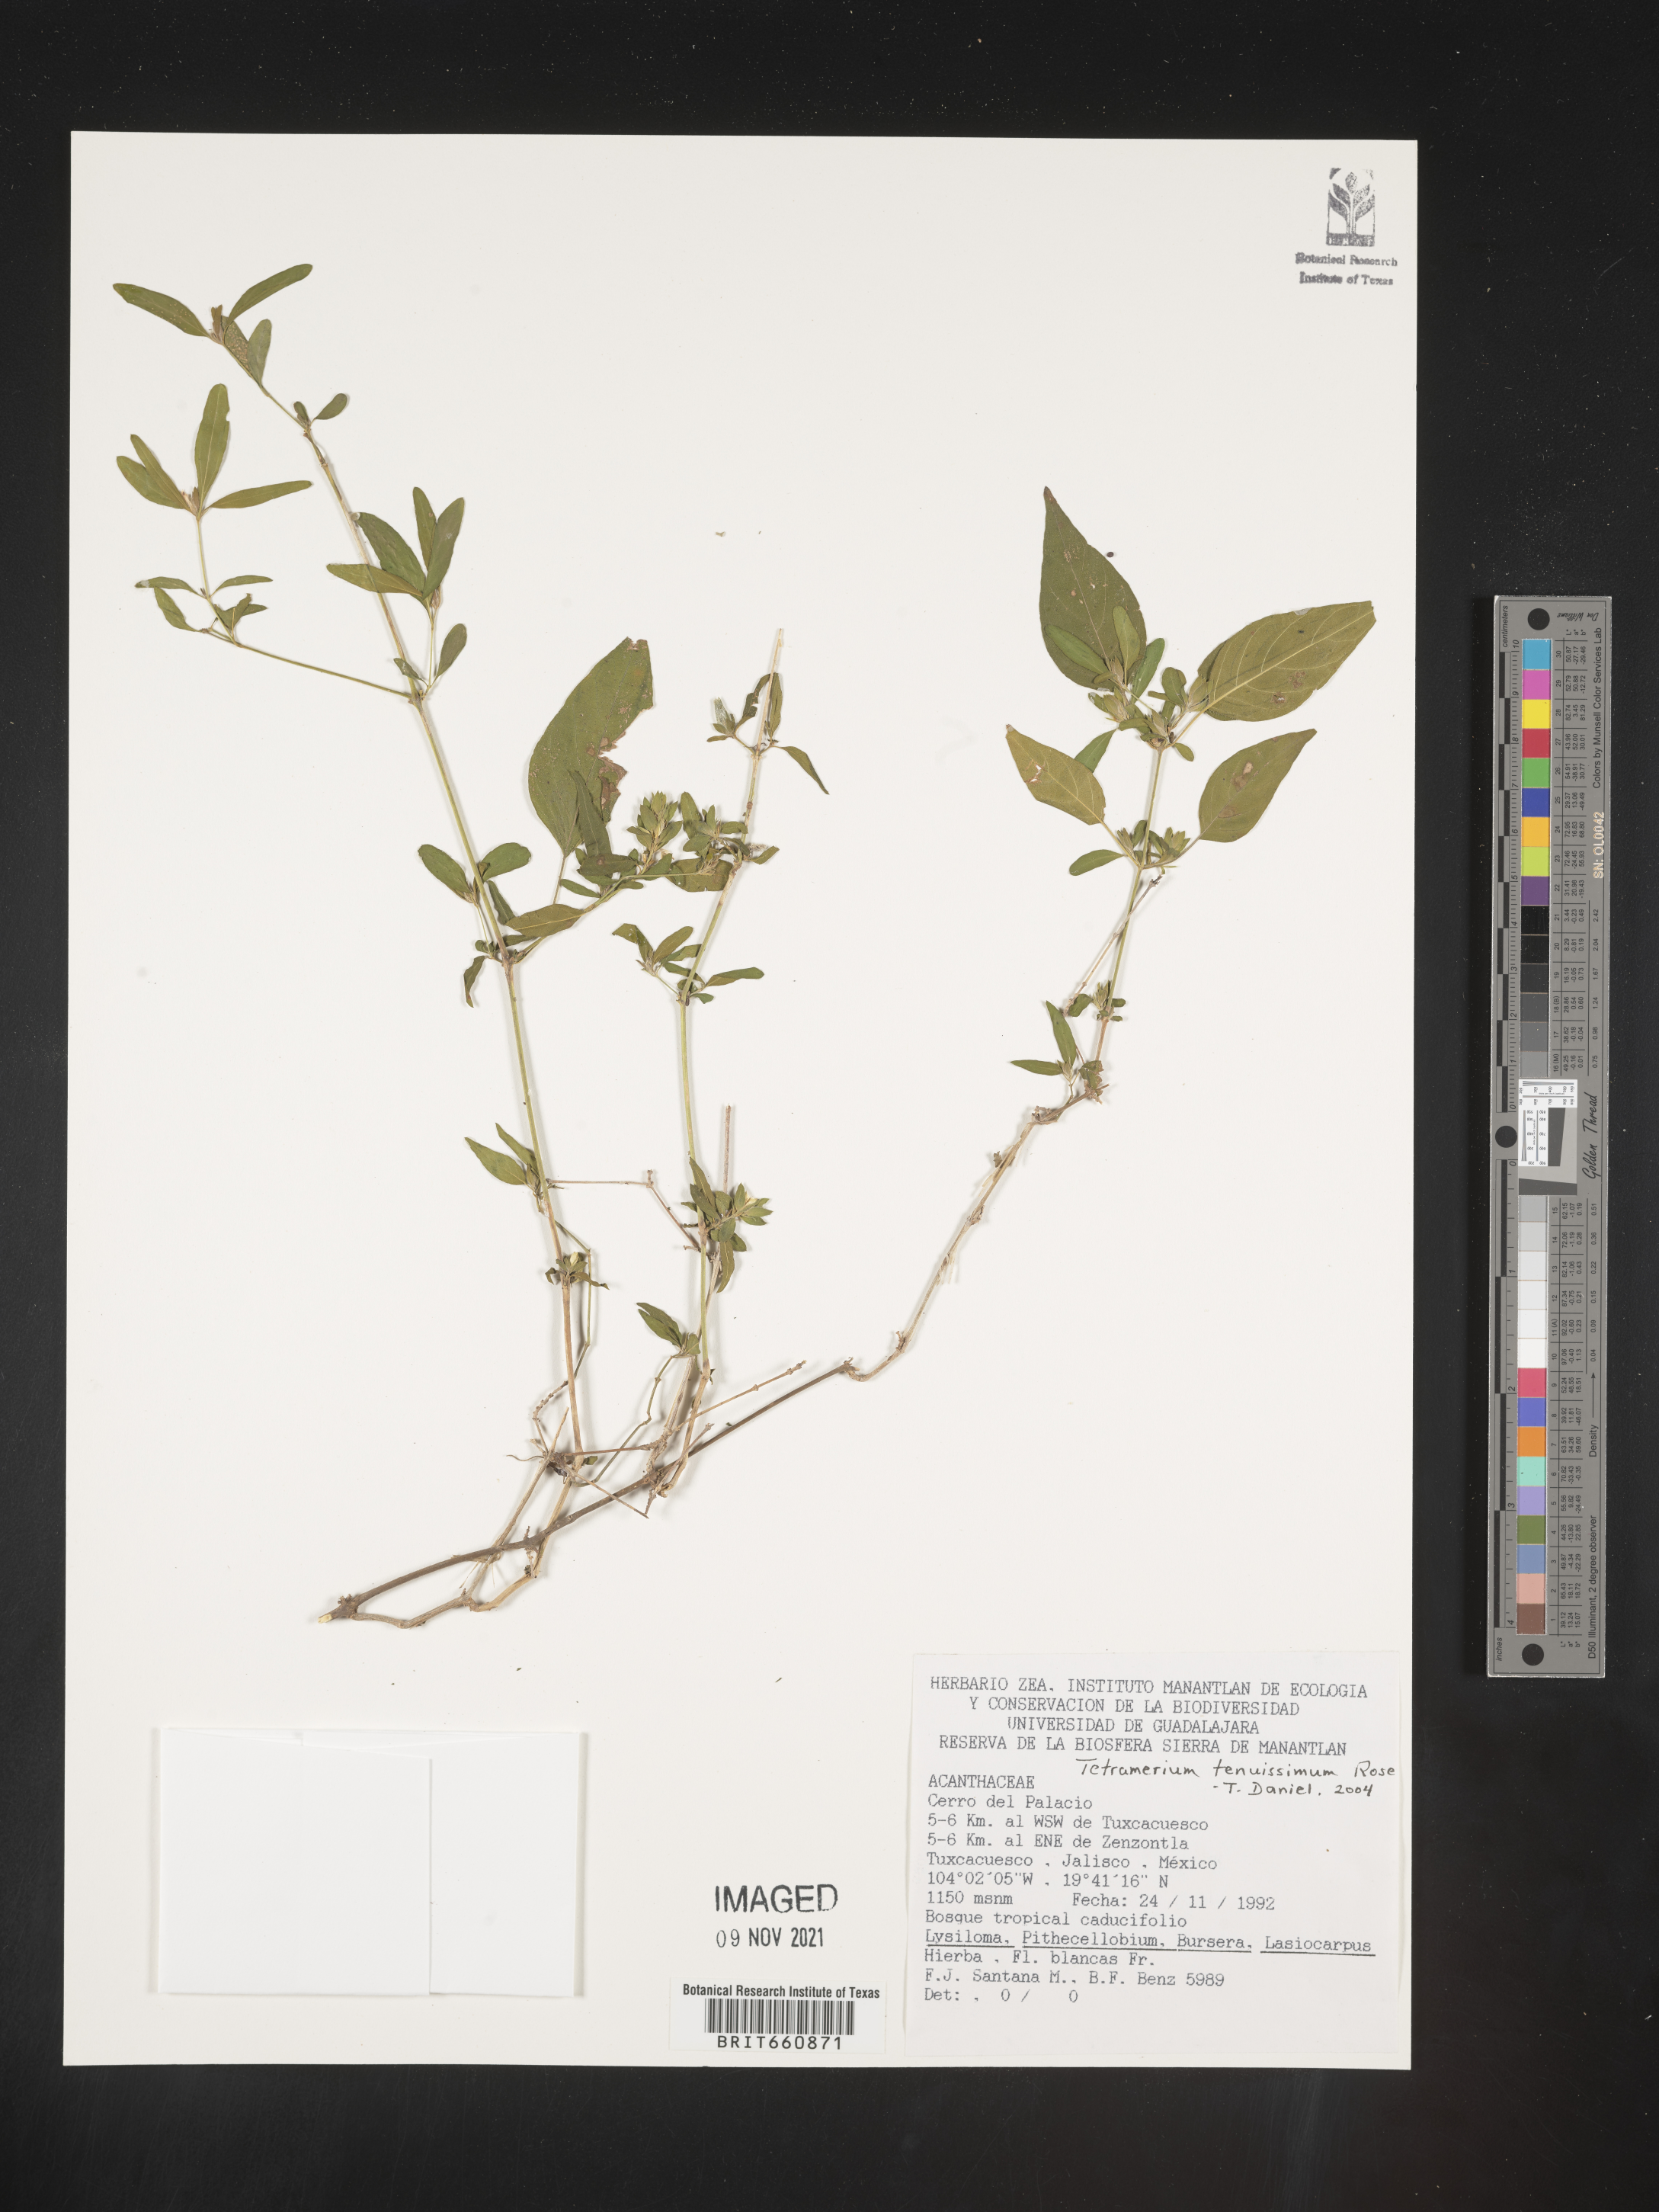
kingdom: Plantae
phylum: Tracheophyta
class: Magnoliopsida
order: Lamiales
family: Acanthaceae
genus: Tetramerium
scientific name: Tetramerium
